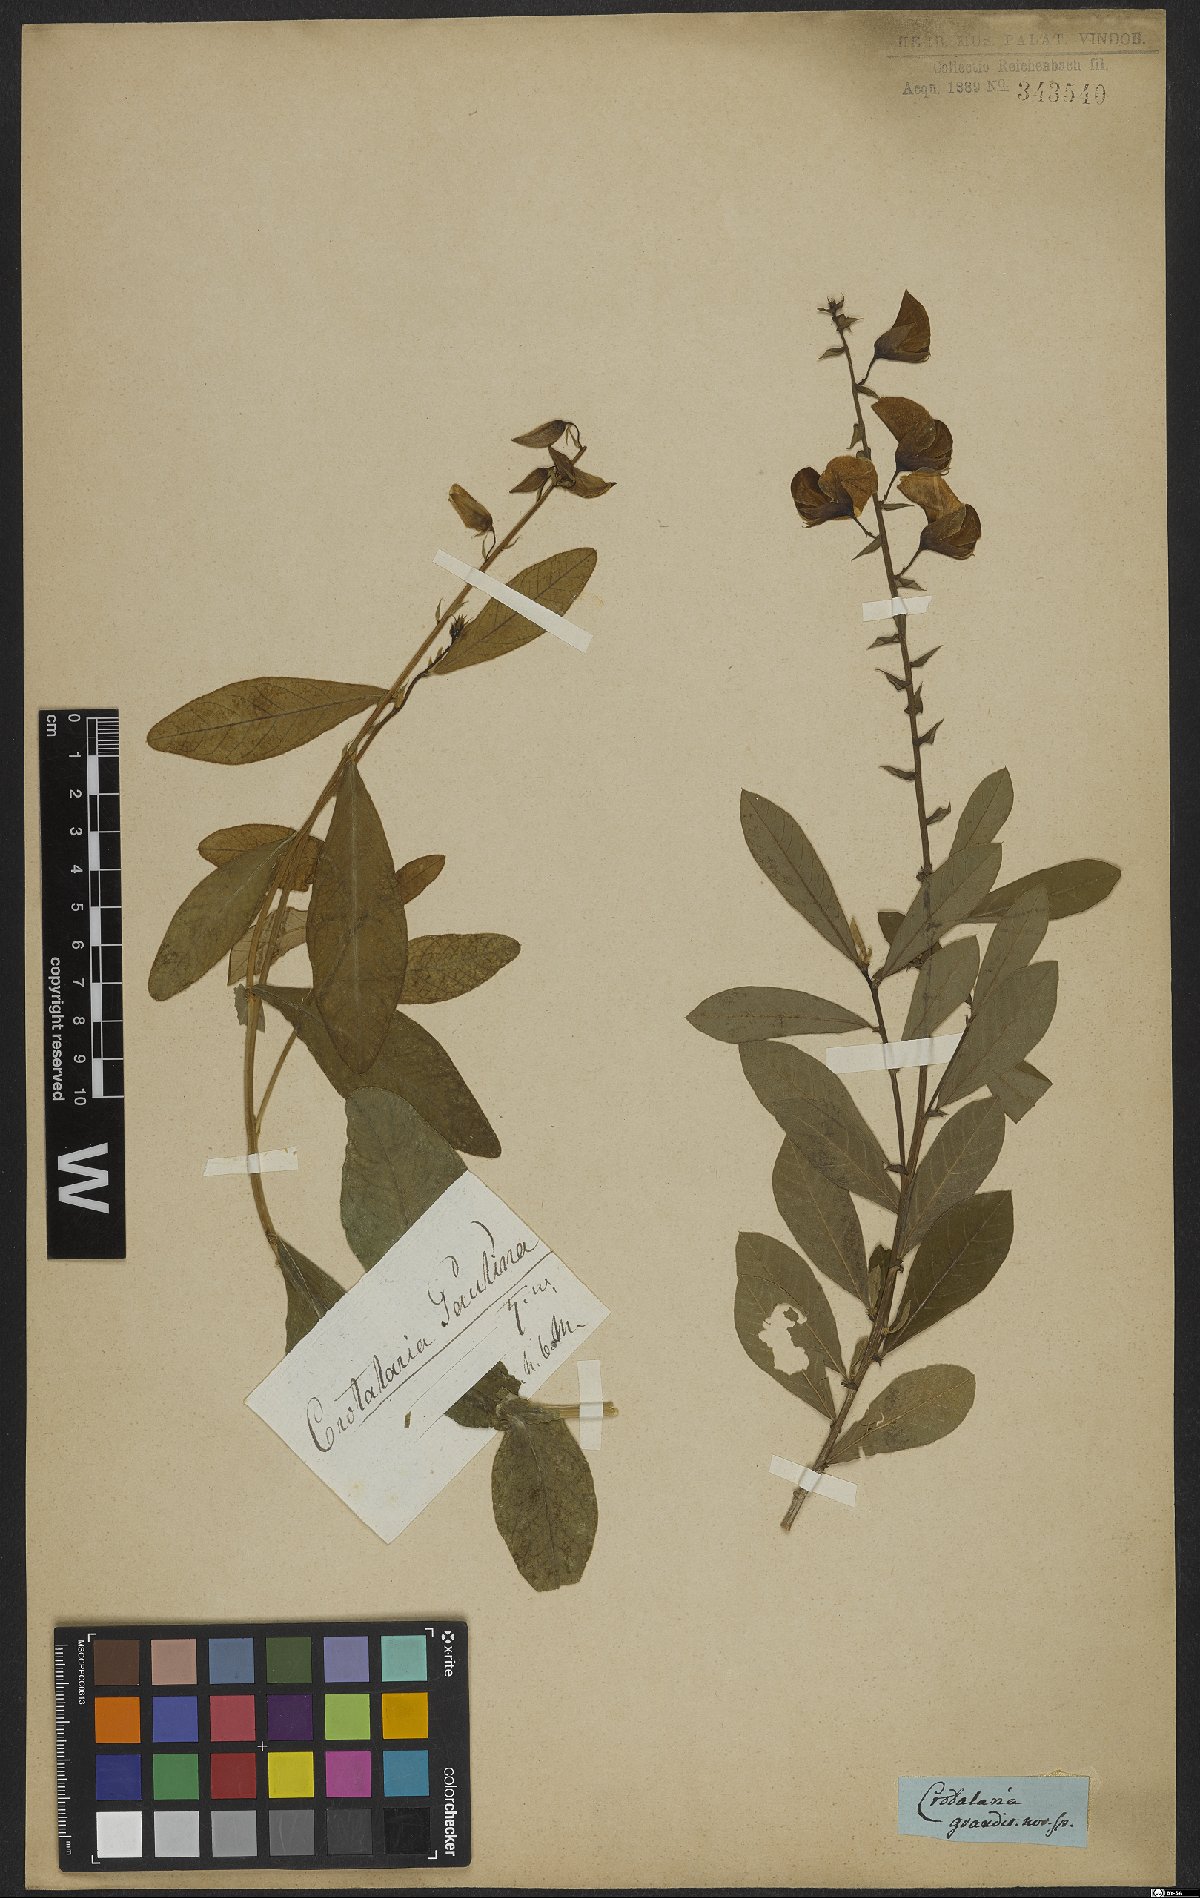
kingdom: Plantae
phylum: Tracheophyta
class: Magnoliopsida
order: Fabales
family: Fabaceae
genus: Crotalaria
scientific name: Crotalaria paulina
